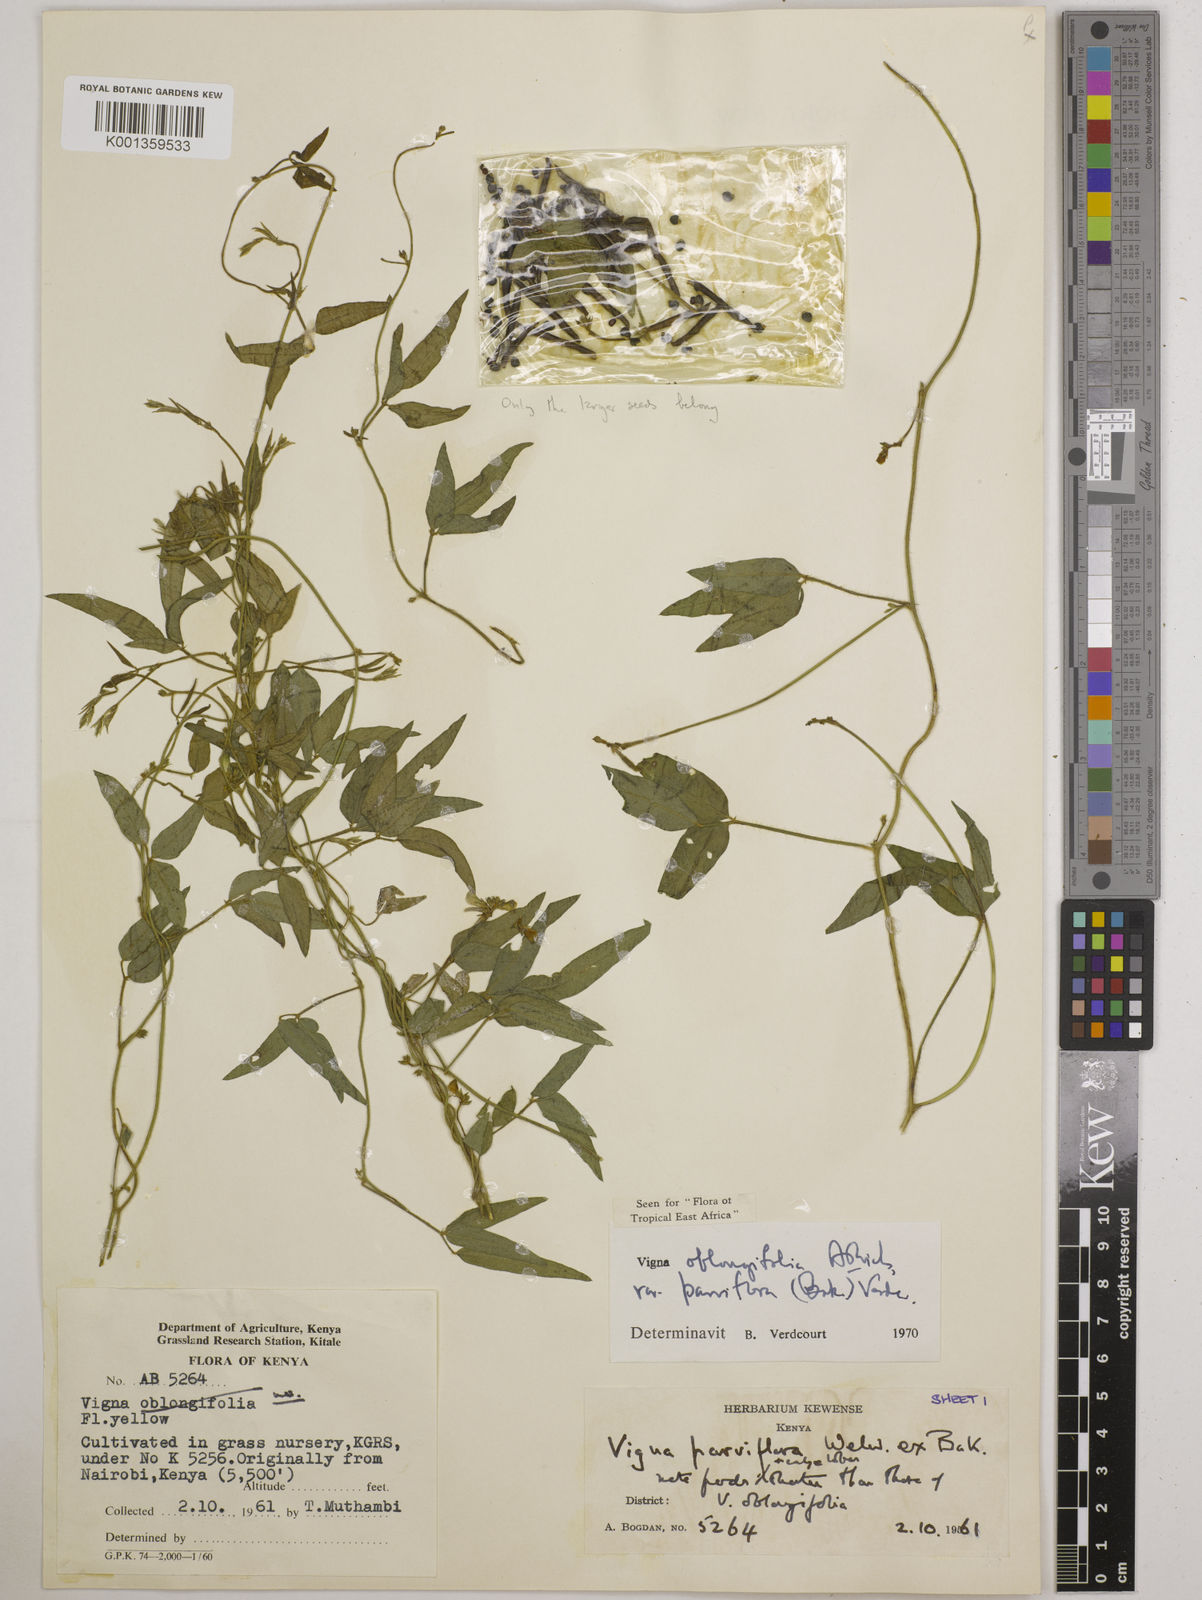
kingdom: Plantae
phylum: Tracheophyta
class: Magnoliopsida
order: Fabales
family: Fabaceae
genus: Vigna
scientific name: Vigna
